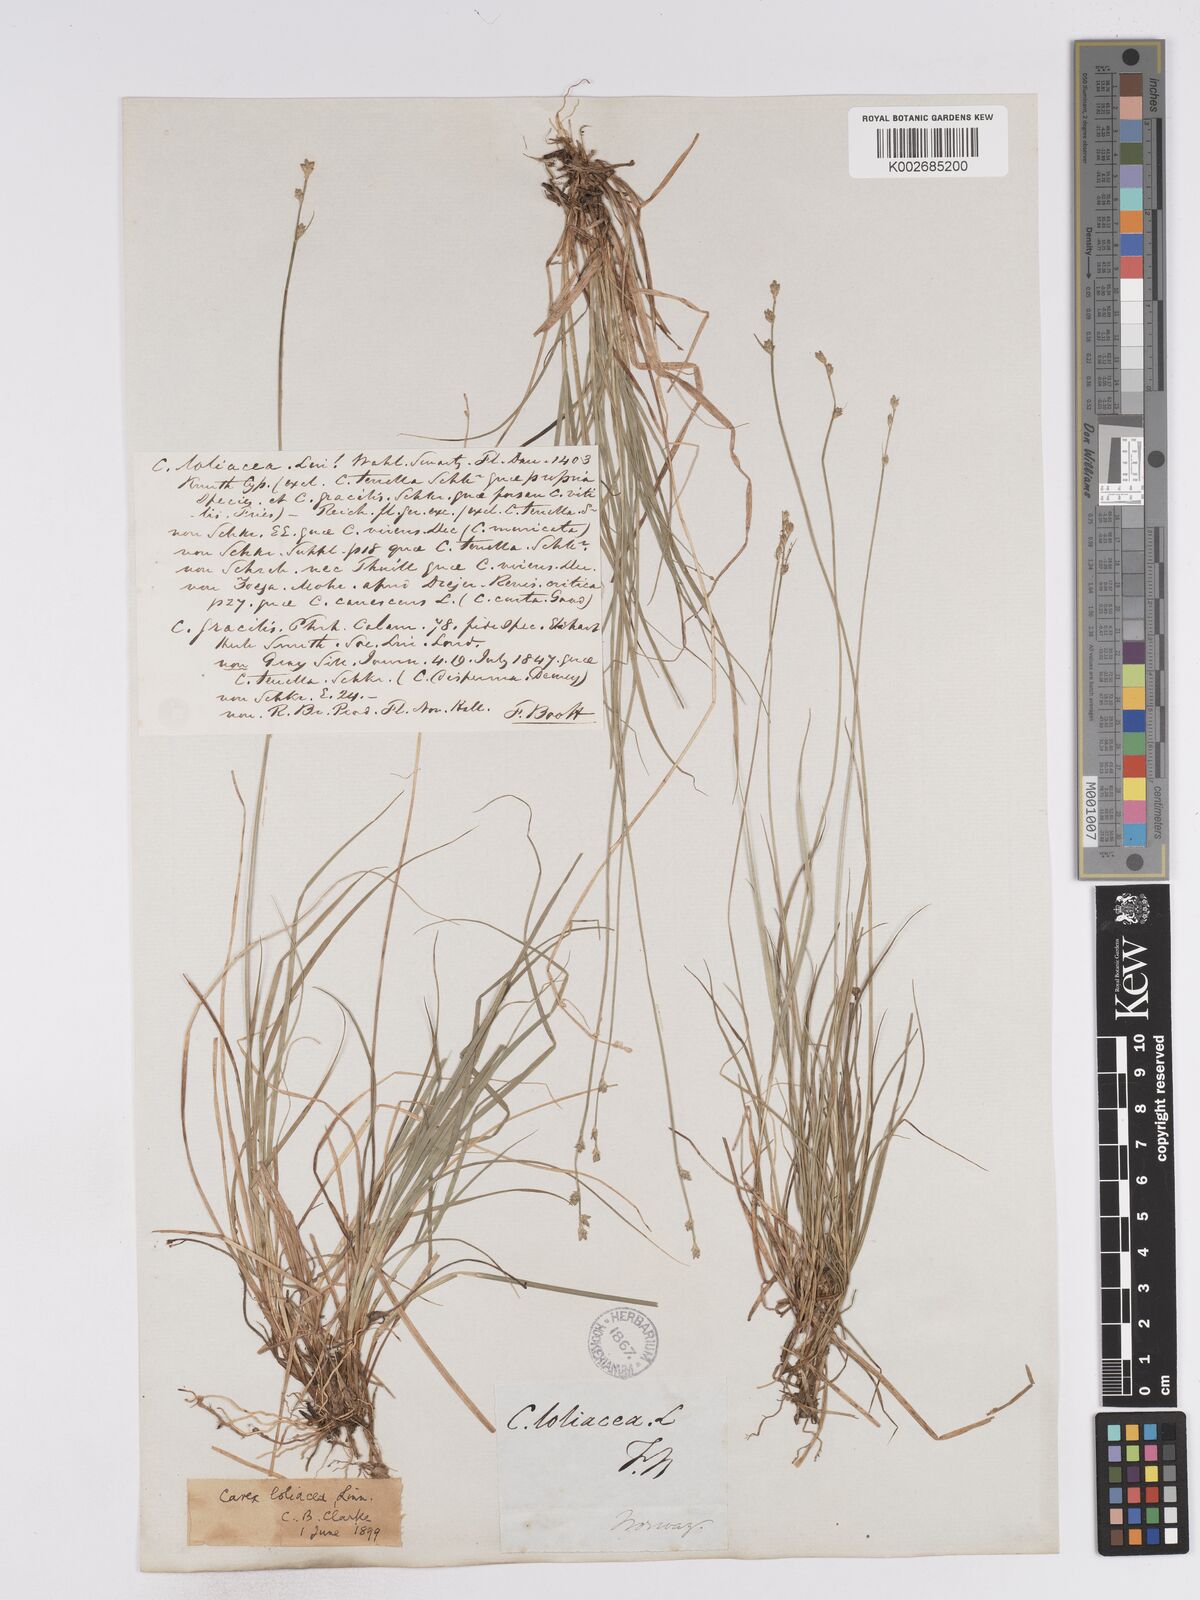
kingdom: Plantae
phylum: Tracheophyta
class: Liliopsida
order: Poales
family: Cyperaceae
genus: Carex
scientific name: Carex loliacea
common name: Ryegrass sedge
